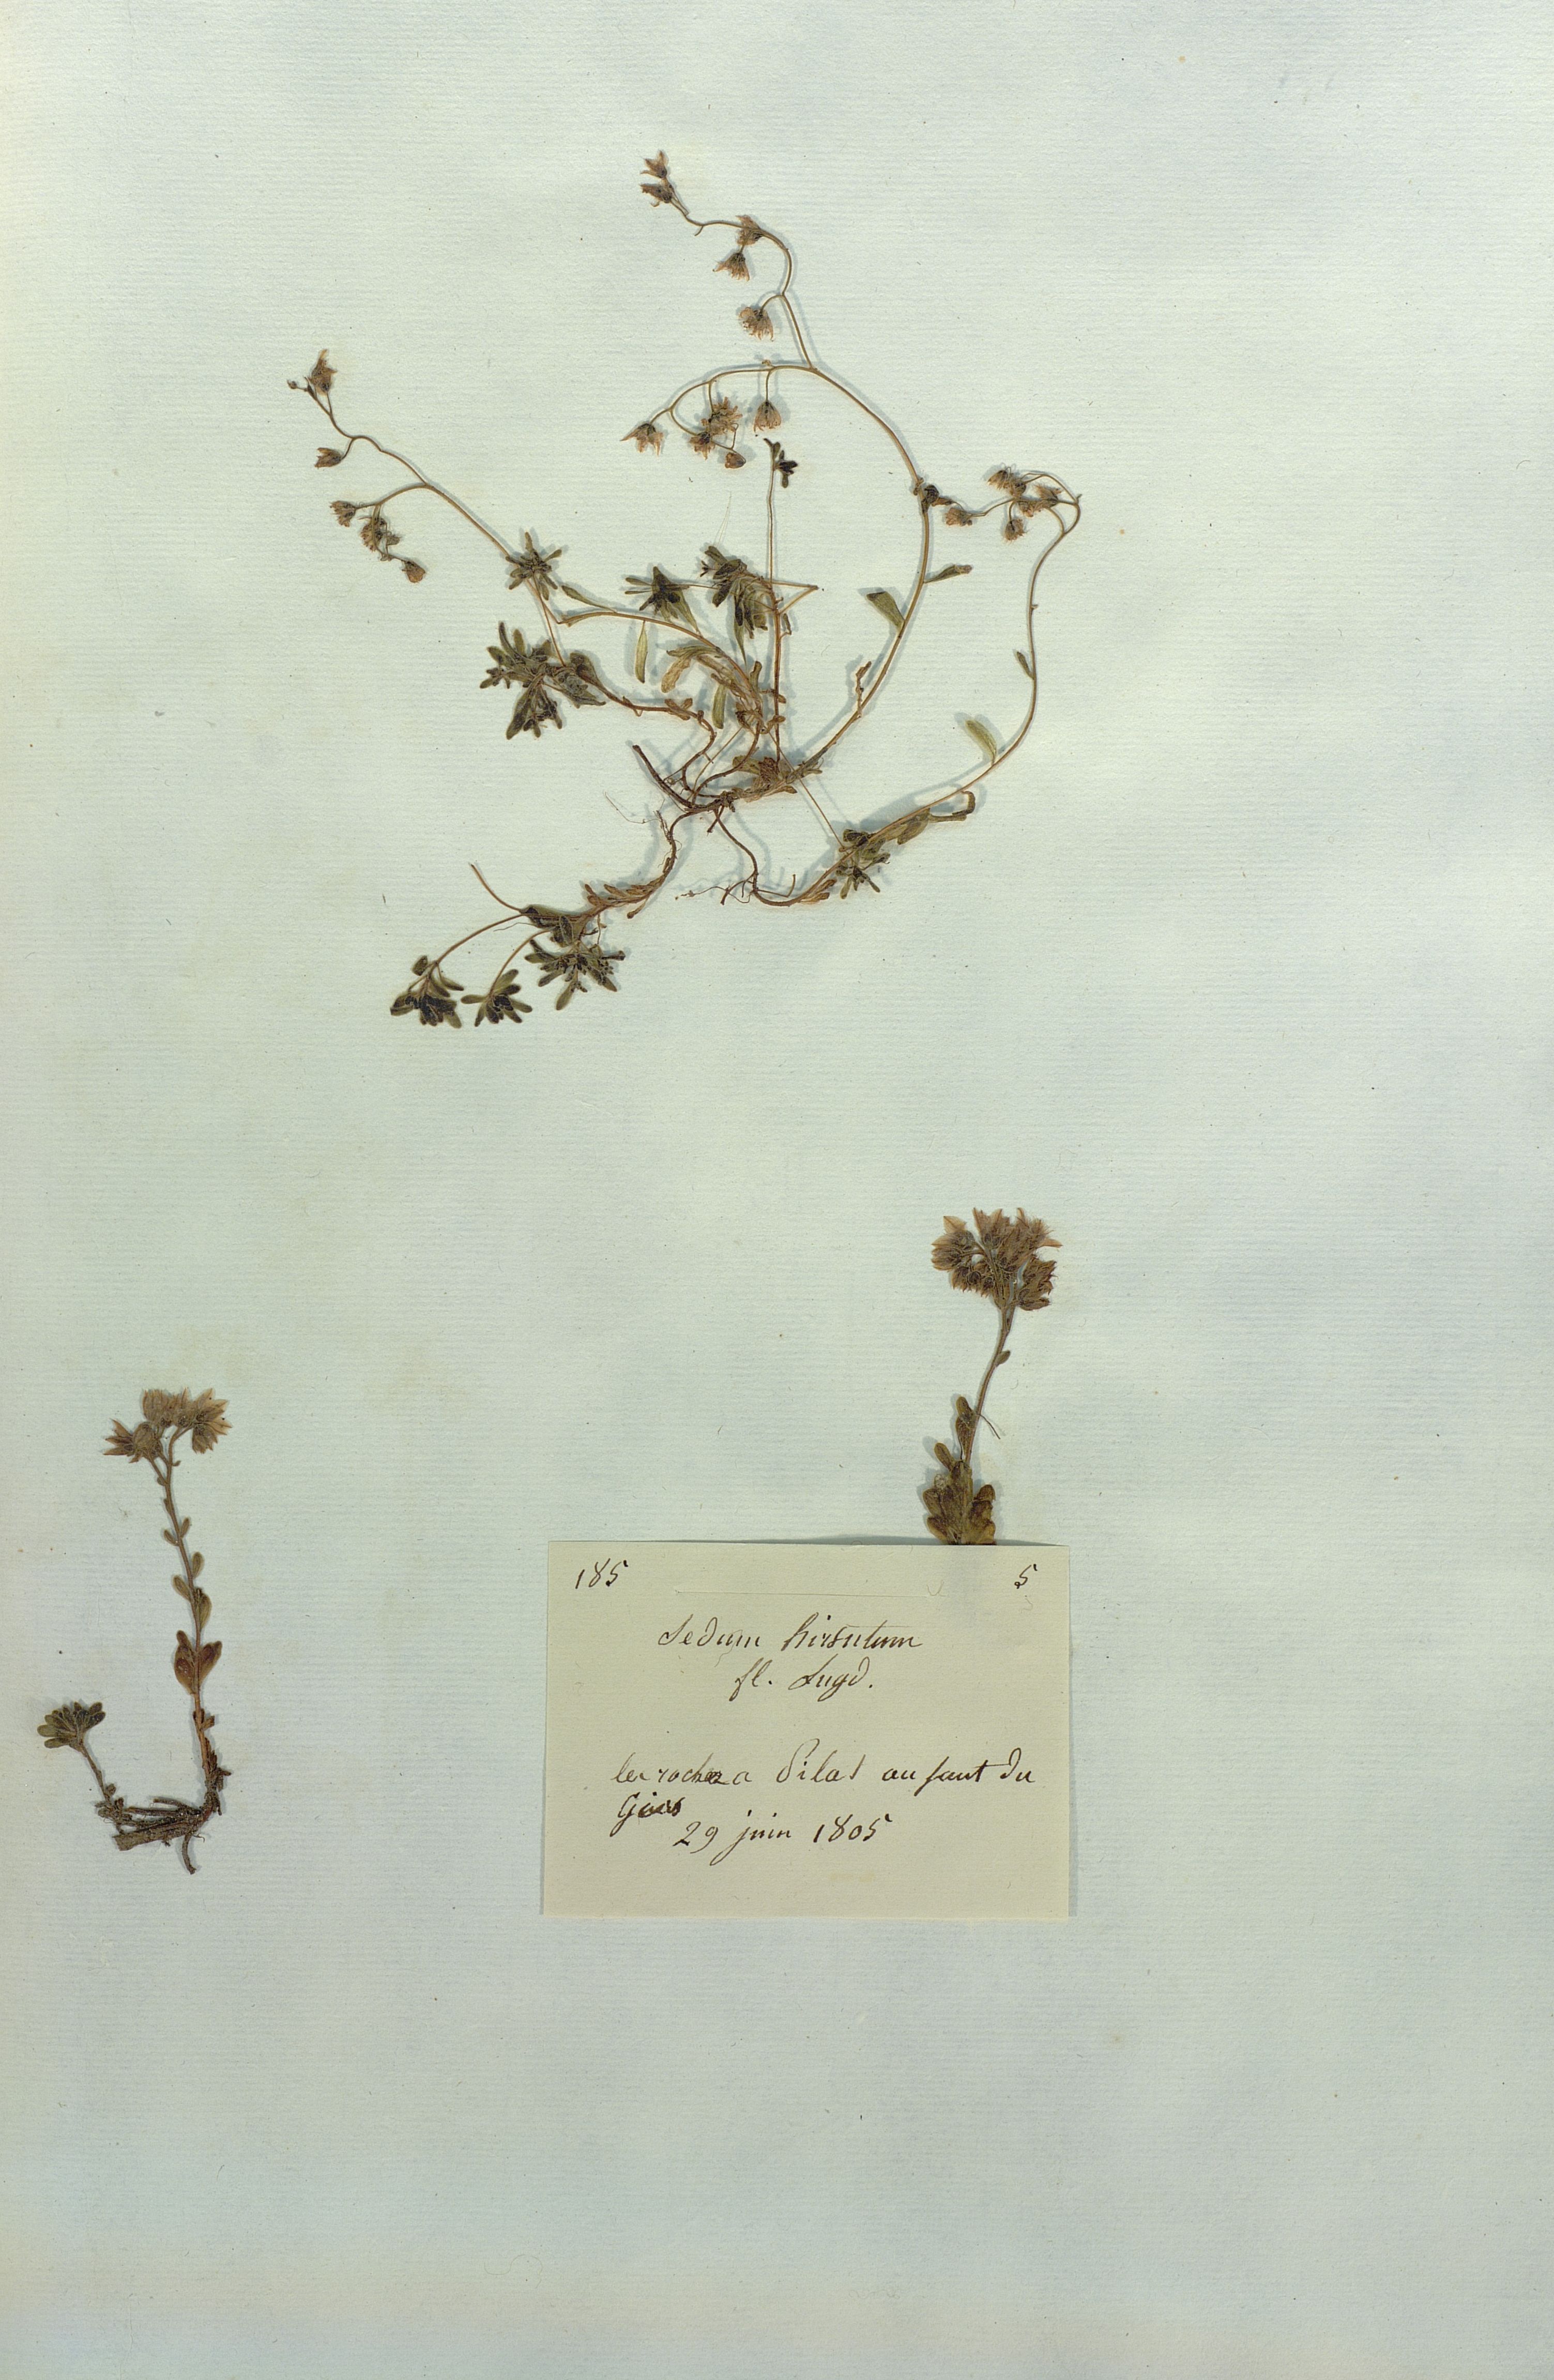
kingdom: Plantae
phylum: Tracheophyta
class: Magnoliopsida
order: Saxifragales
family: Crassulaceae
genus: Sedum
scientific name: Sedum hirsutum
